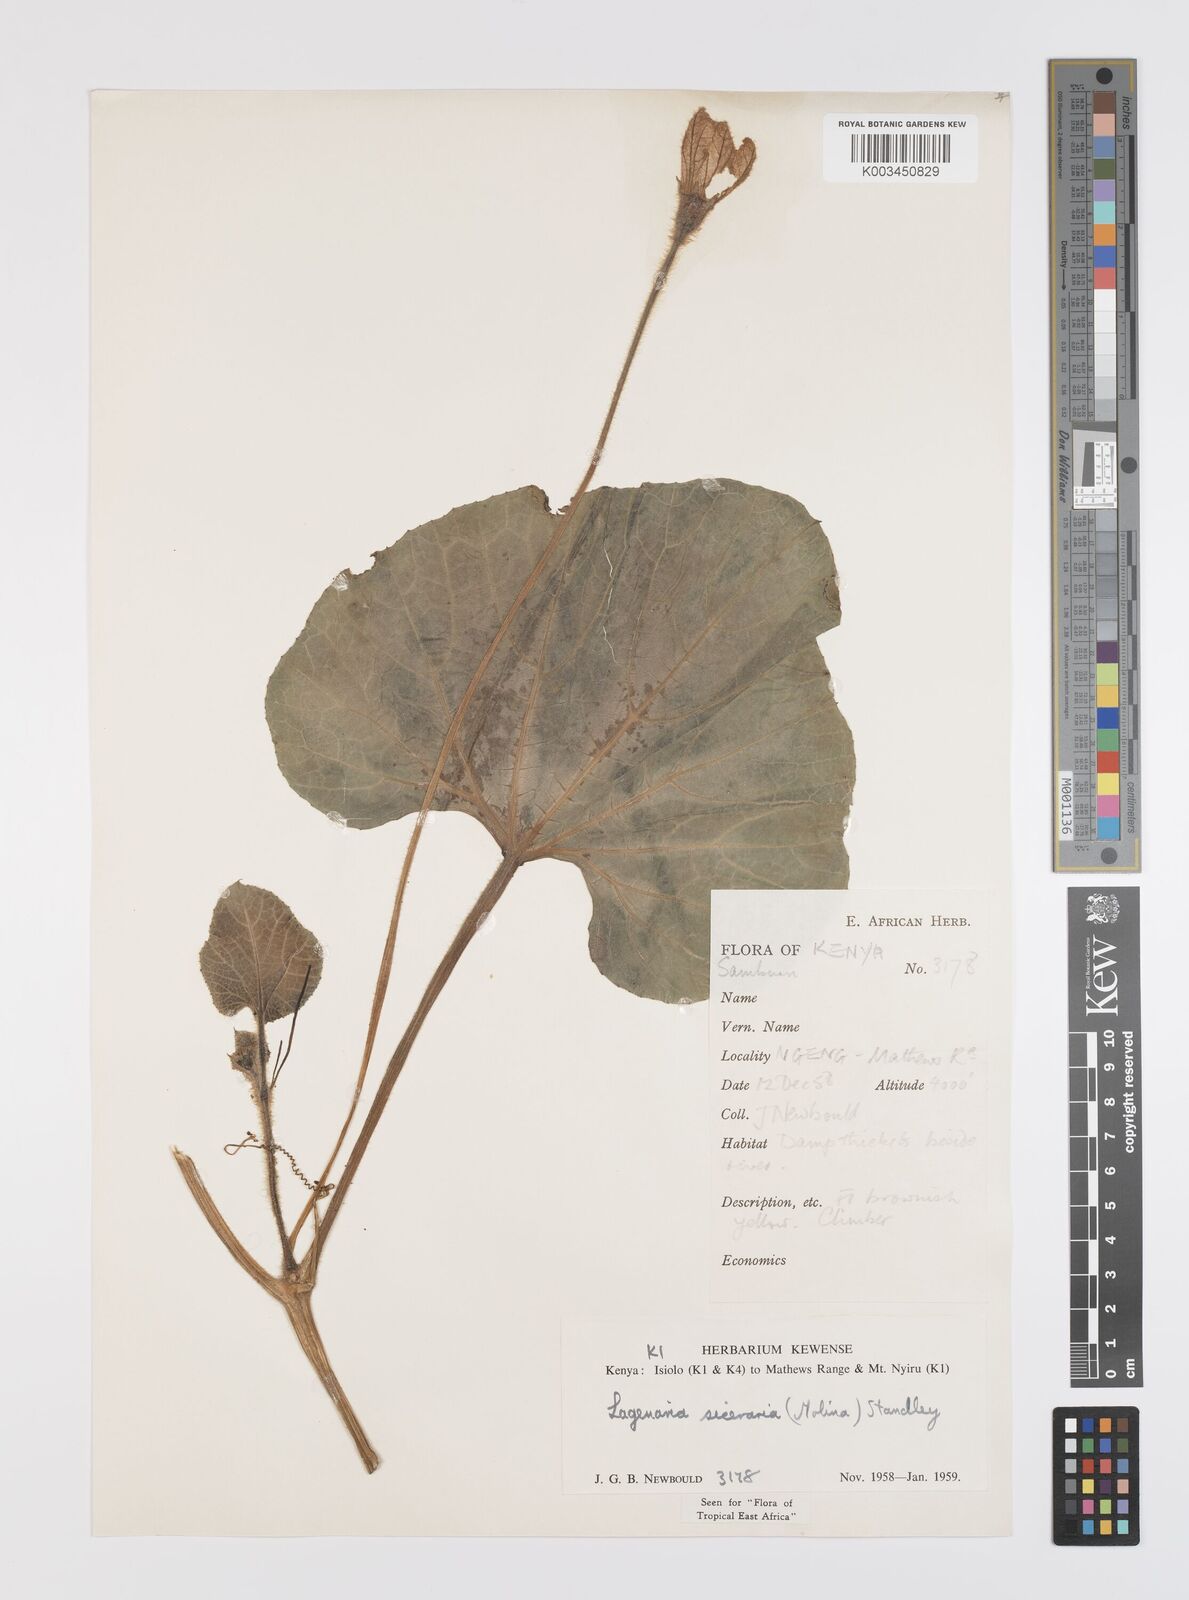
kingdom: Plantae
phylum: Tracheophyta
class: Magnoliopsida
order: Cucurbitales
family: Cucurbitaceae
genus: Lagenaria
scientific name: Lagenaria siceraria
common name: Bottle gourd
